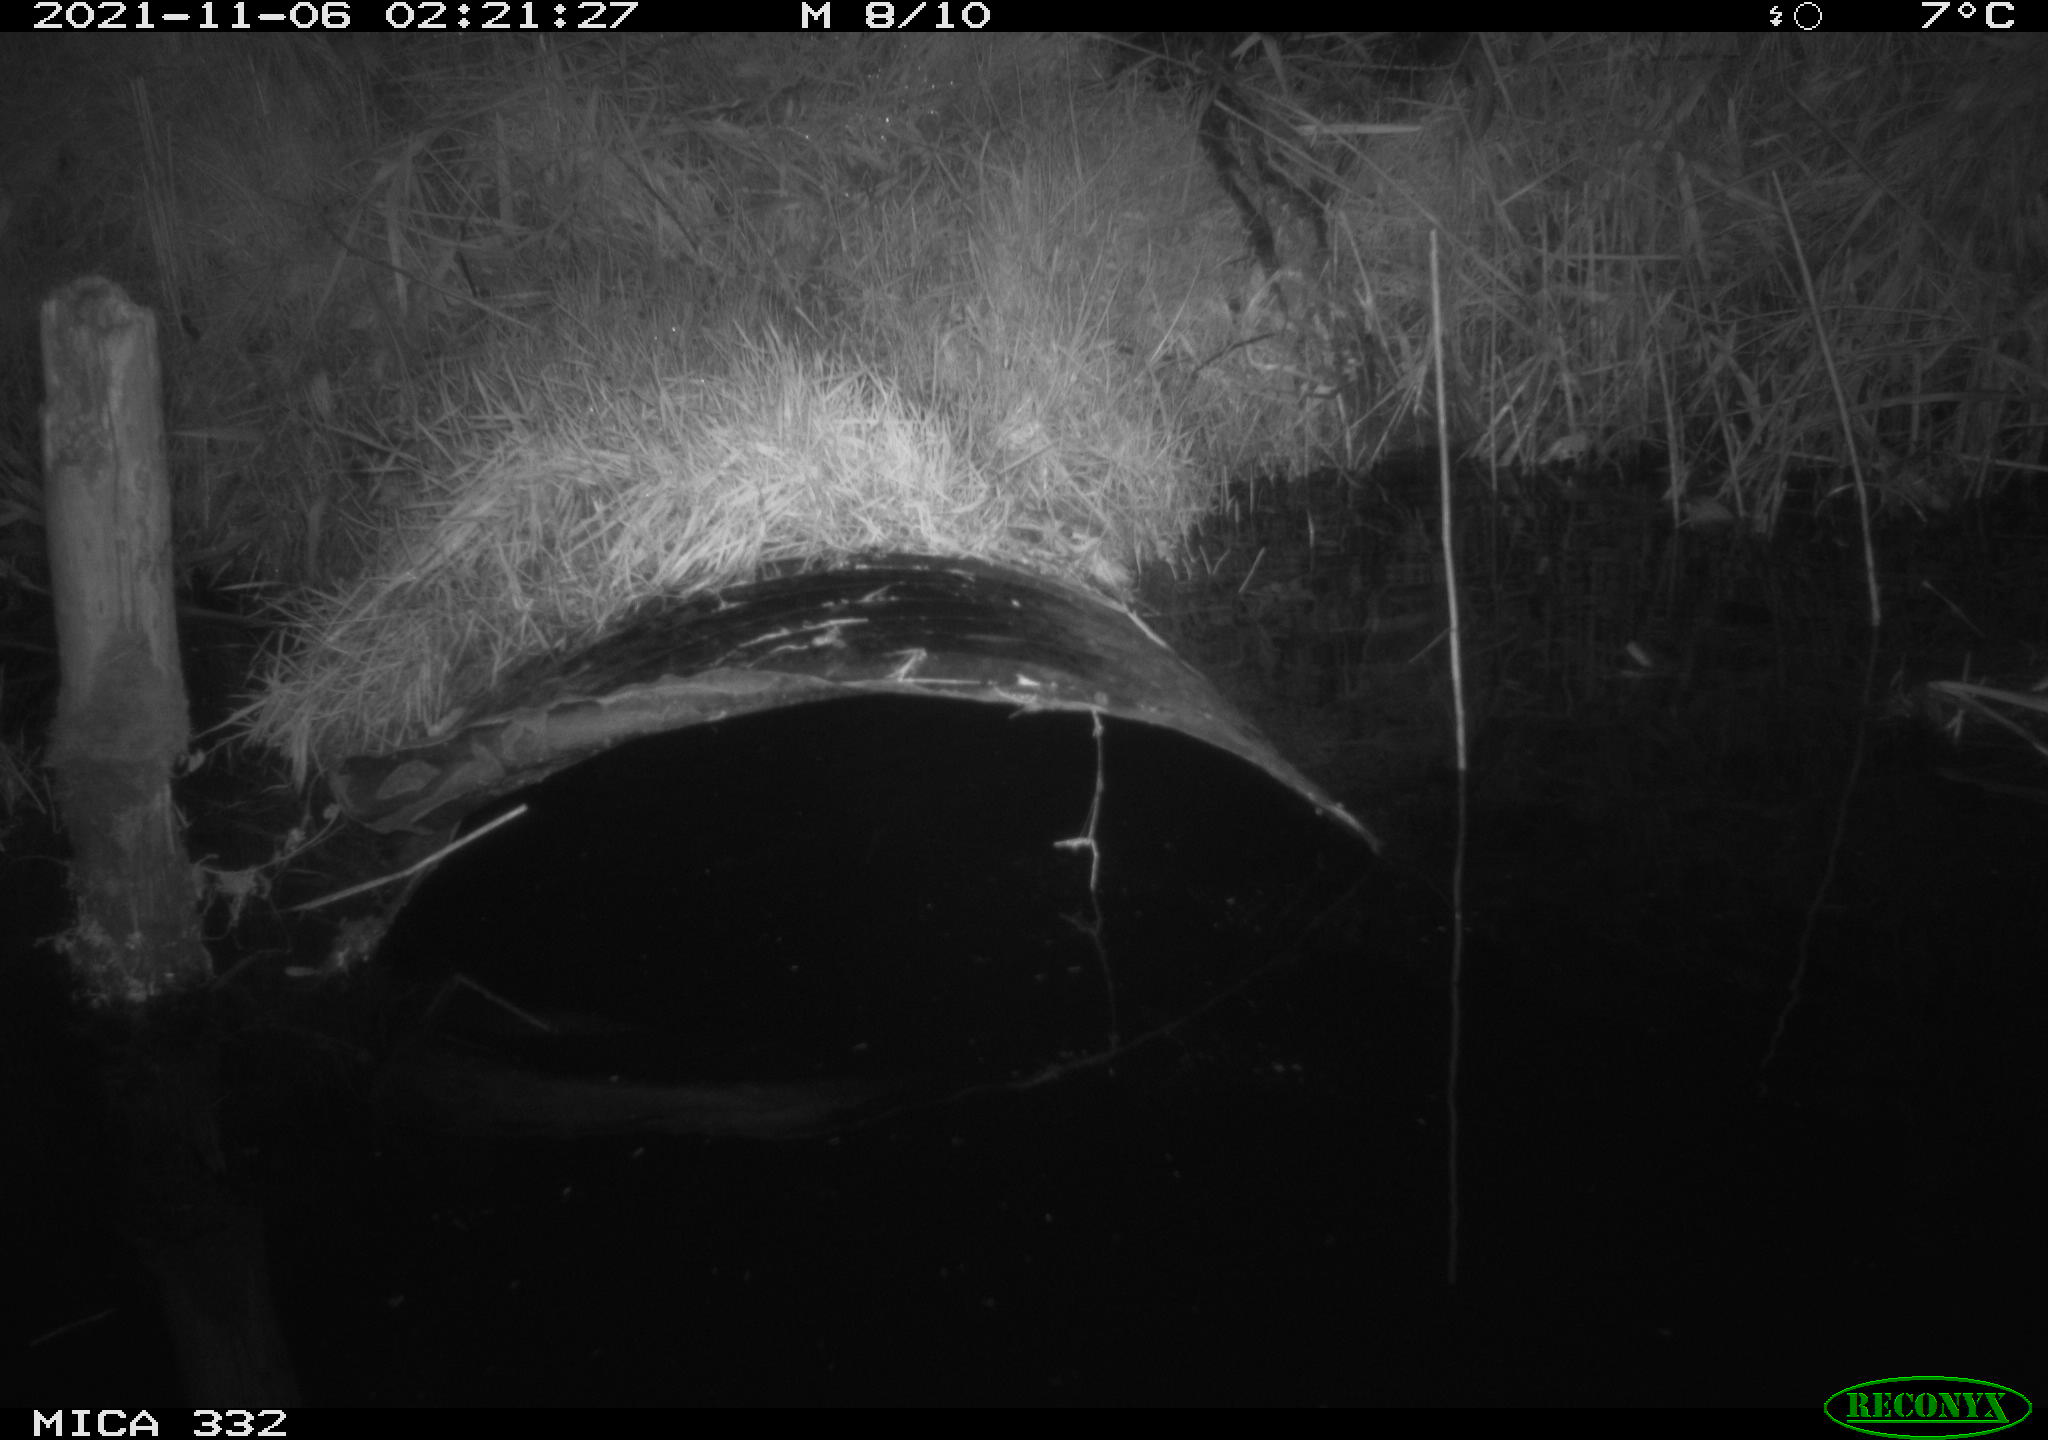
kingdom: Animalia
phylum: Chordata
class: Mammalia
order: Rodentia
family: Muridae
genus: Rattus
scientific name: Rattus norvegicus
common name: Brown rat
